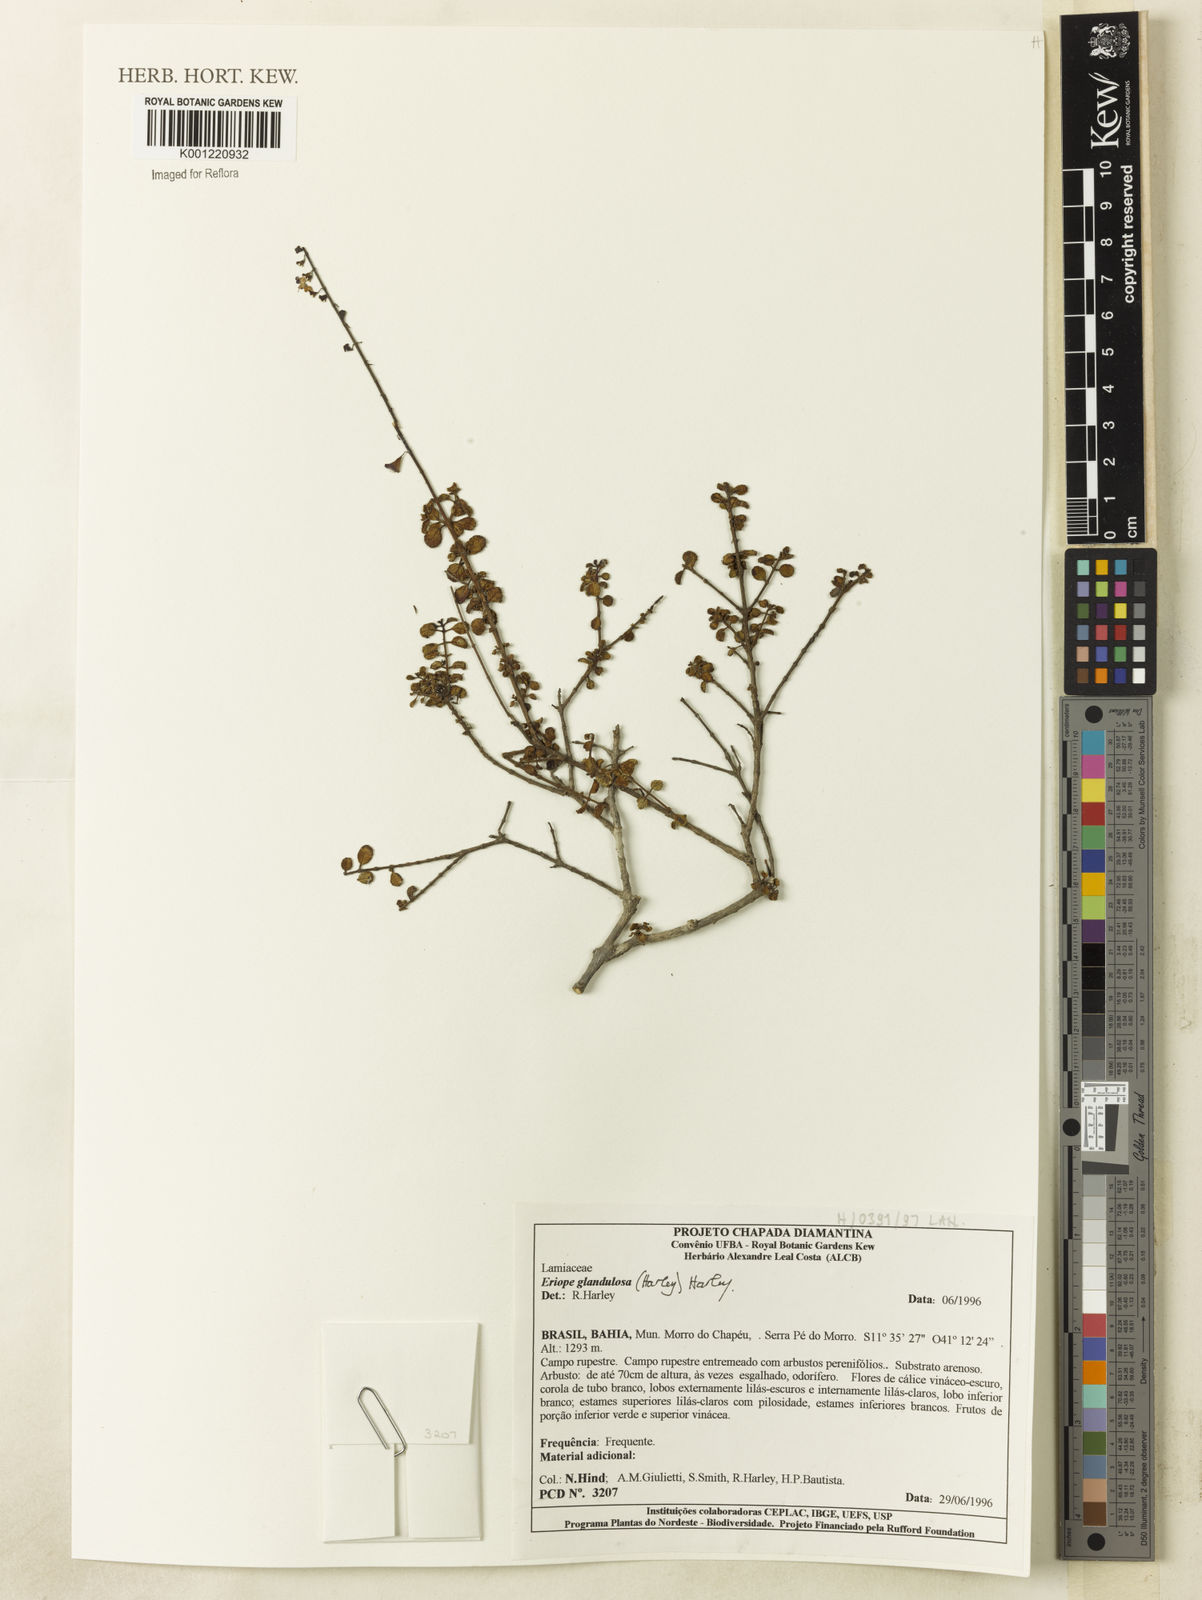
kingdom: Plantae
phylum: Tracheophyta
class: Magnoliopsida
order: Lamiales
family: Lamiaceae
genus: Eriope
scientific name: Eriope glandulosa
